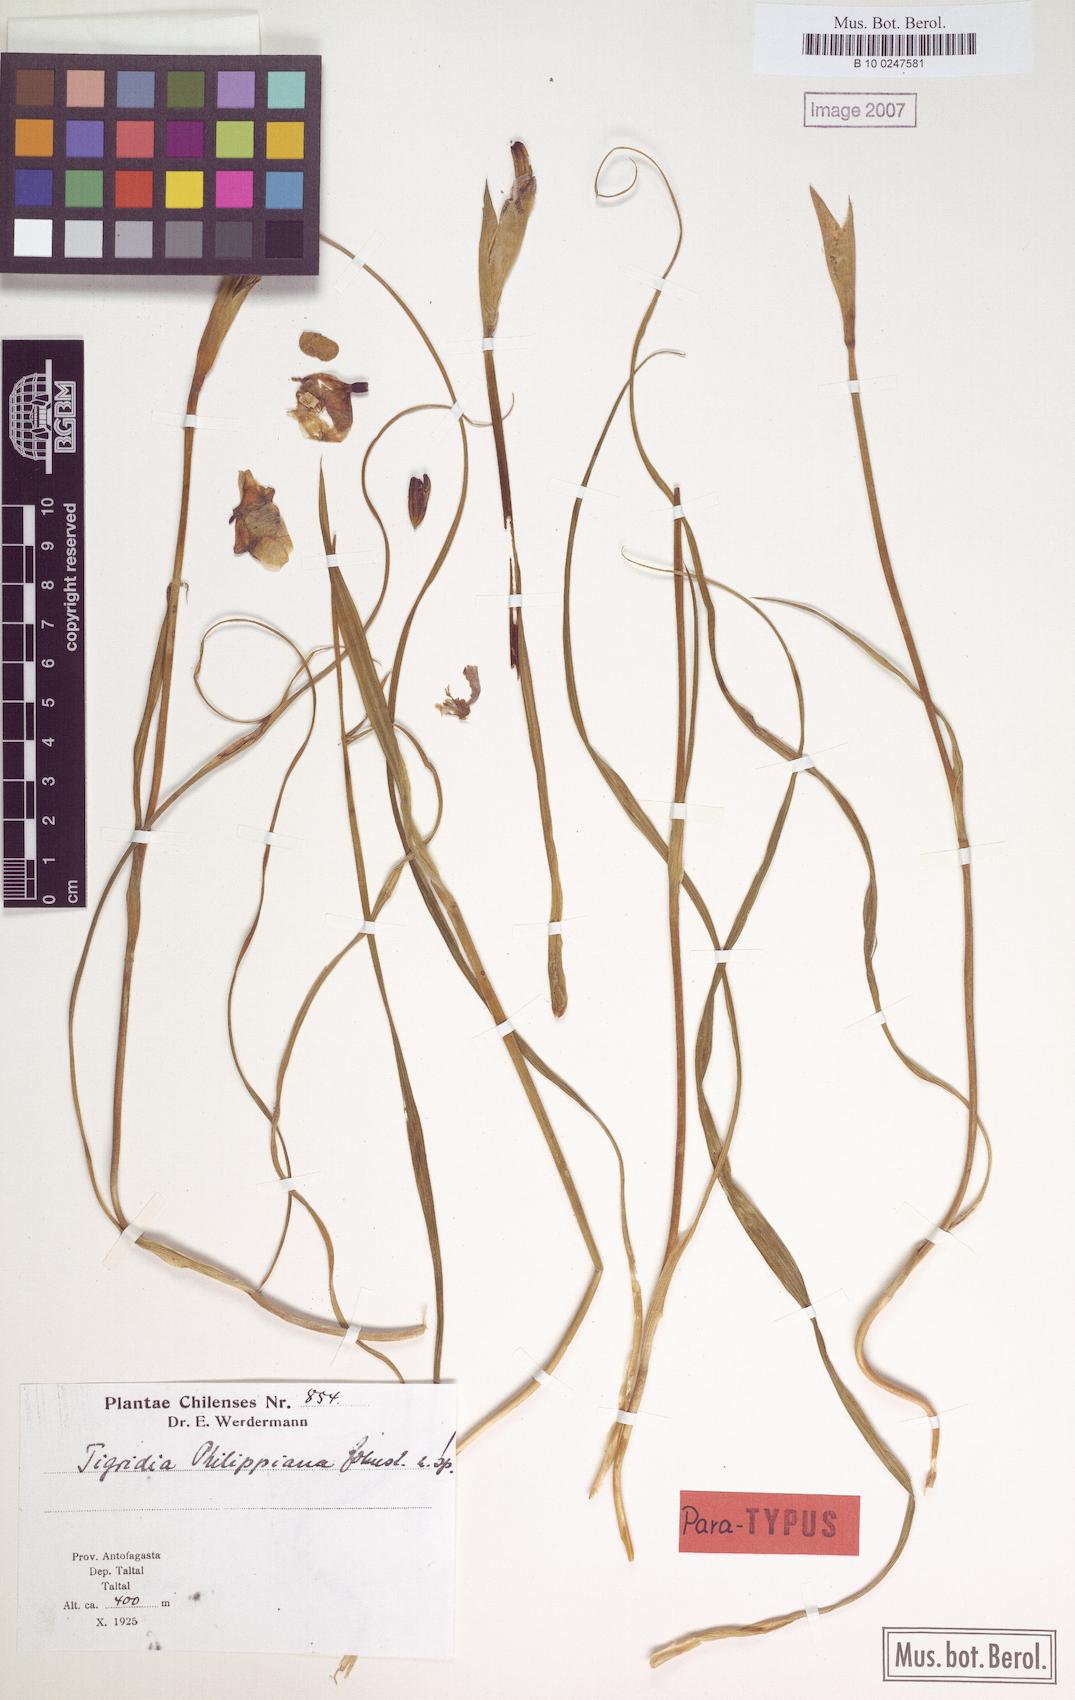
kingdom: Plantae
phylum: Tracheophyta
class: Liliopsida
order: Asparagales
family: Iridaceae
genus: Tigridia
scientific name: Tigridia philippiana
